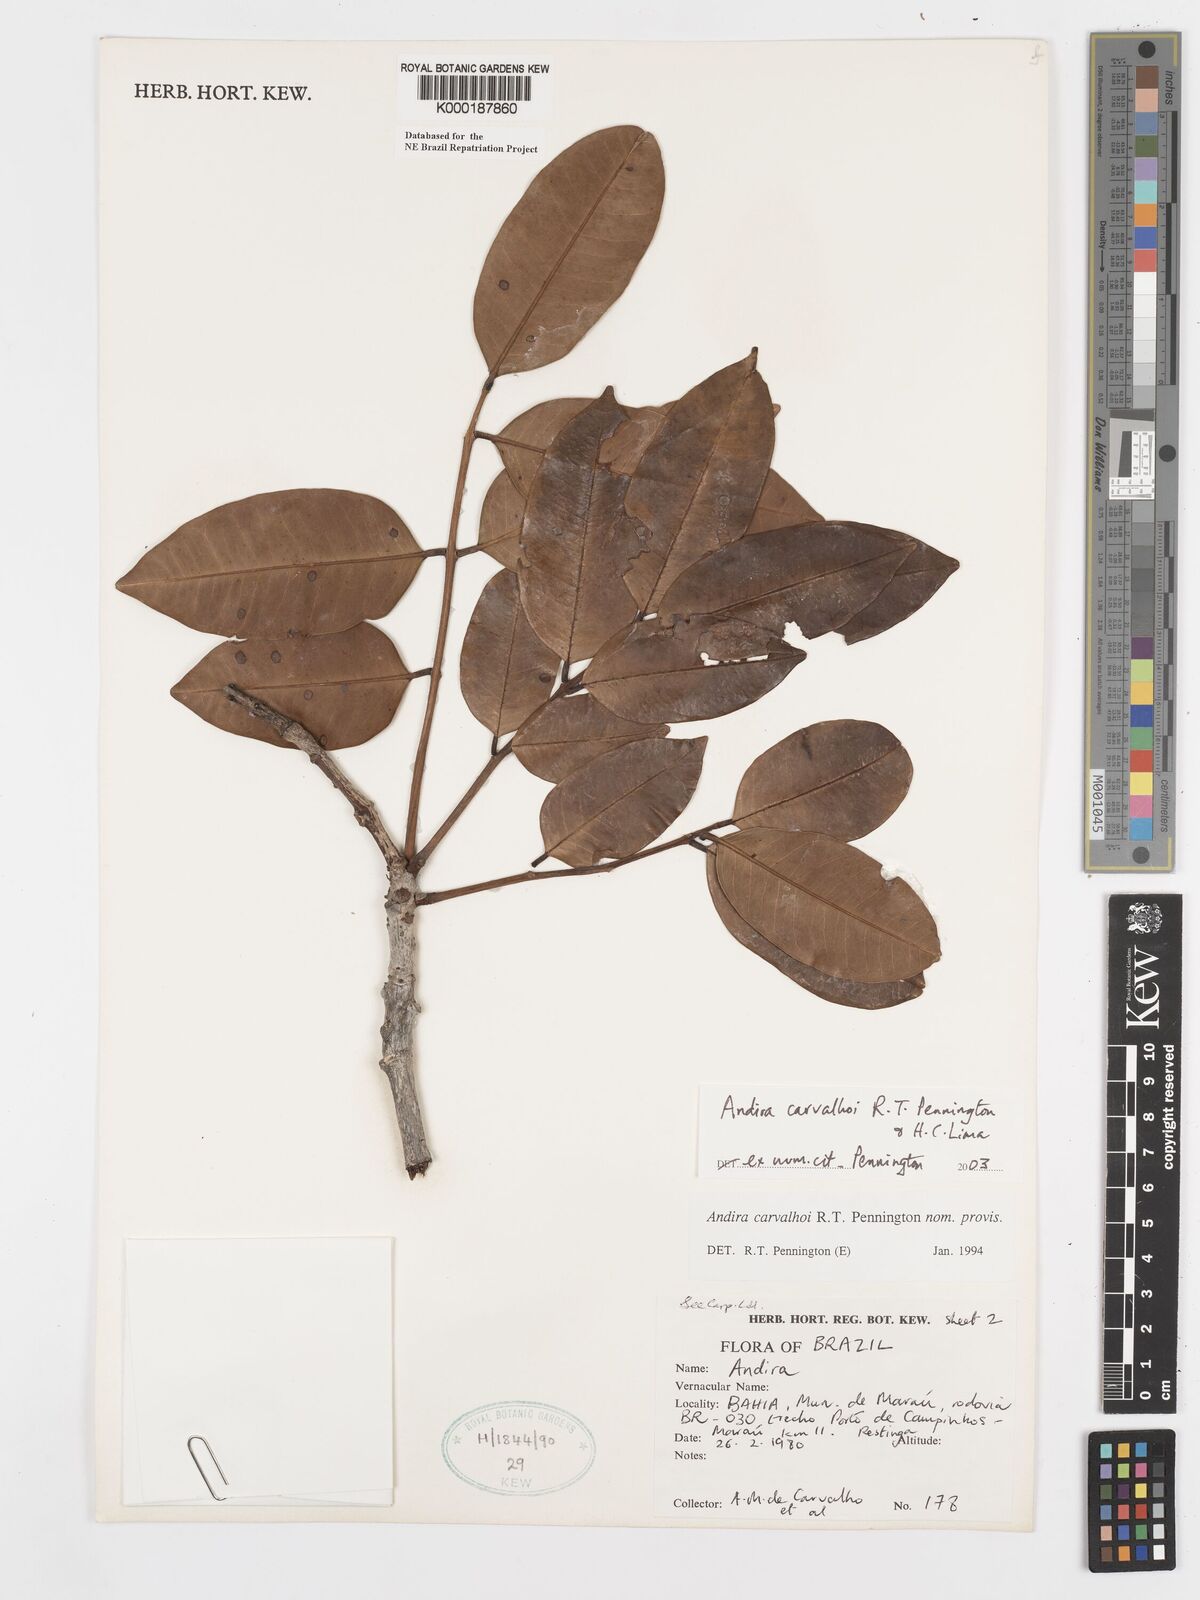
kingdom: Plantae
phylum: Tracheophyta
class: Magnoliopsida
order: Fabales
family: Fabaceae
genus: Andira
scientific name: Andira carvalhoi
